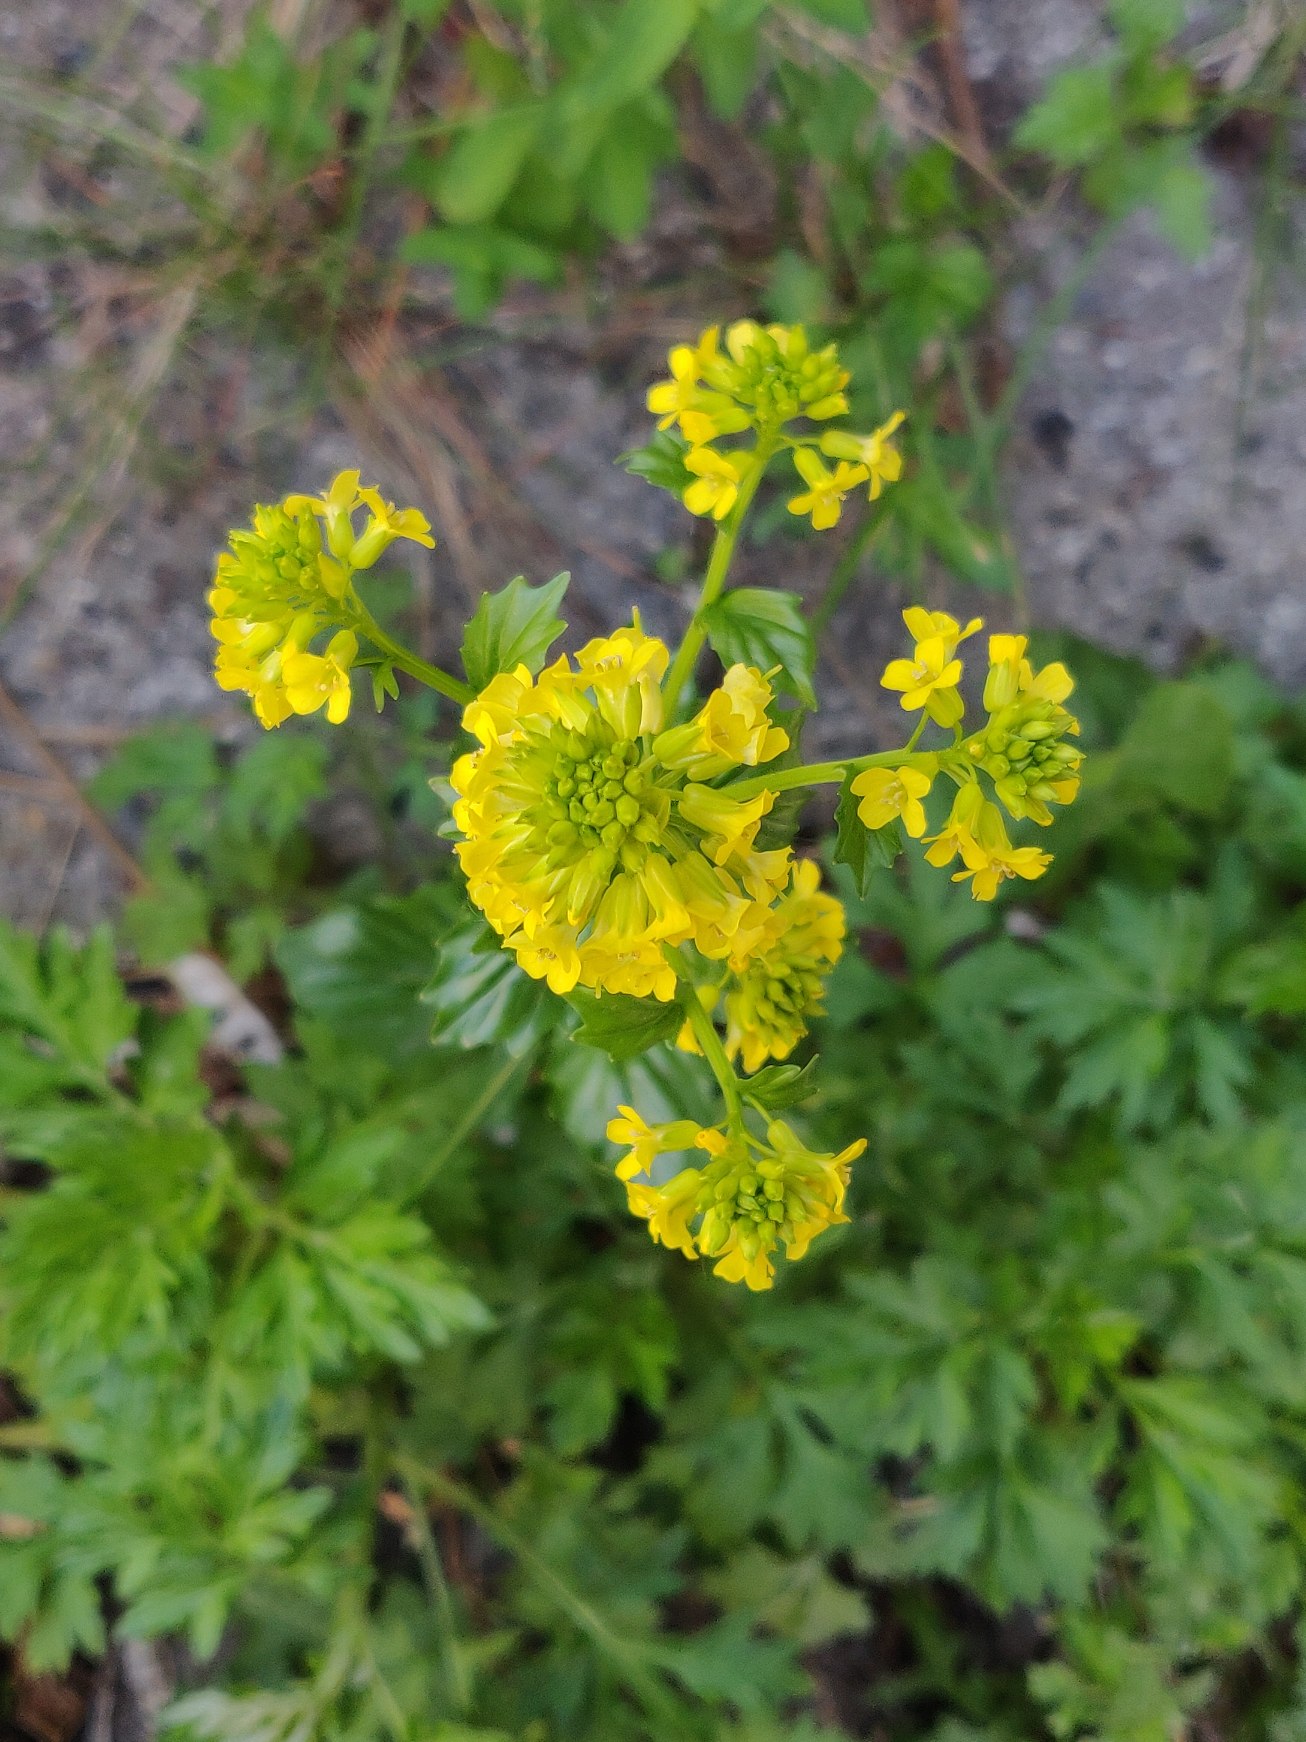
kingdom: Plantae
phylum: Tracheophyta
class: Magnoliopsida
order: Brassicales
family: Brassicaceae
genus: Barbarea
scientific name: Barbarea vulgaris
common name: Udspærret vinterkarse
